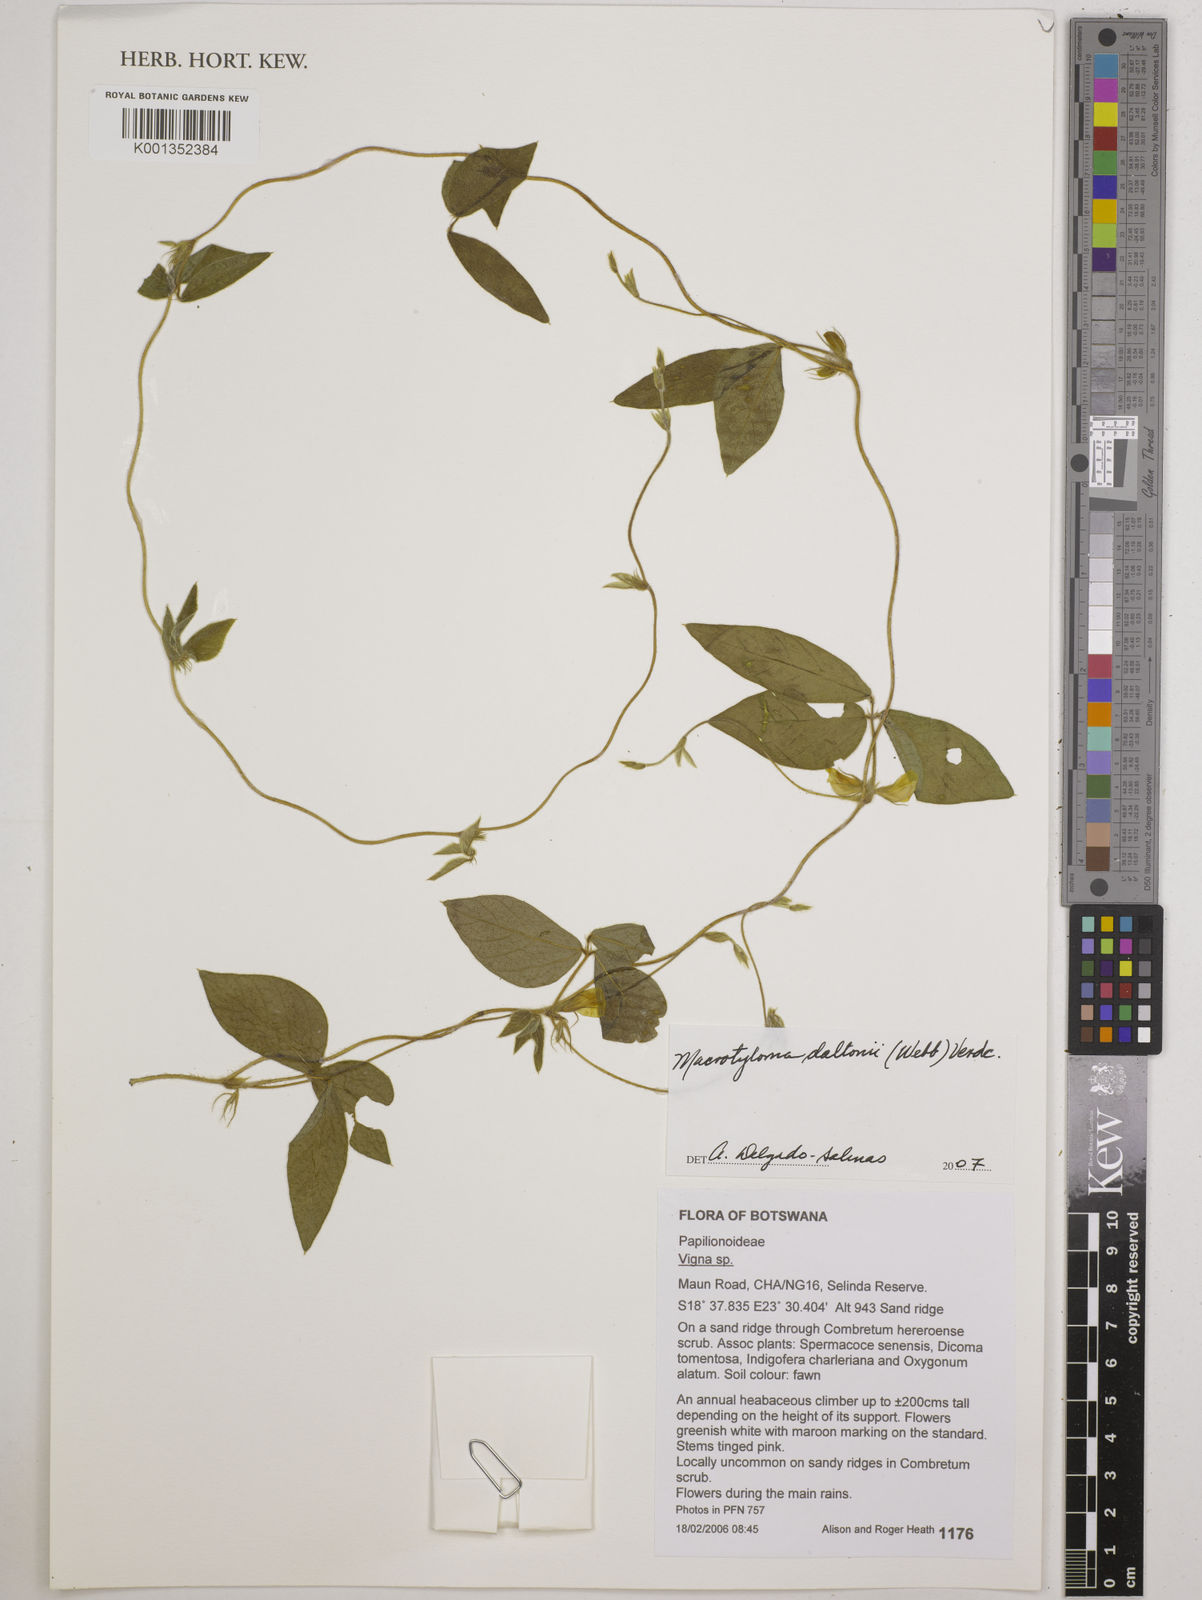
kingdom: Plantae
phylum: Tracheophyta
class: Magnoliopsida
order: Fabales
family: Fabaceae
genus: Macrotyloma
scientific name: Macrotyloma daltonii
